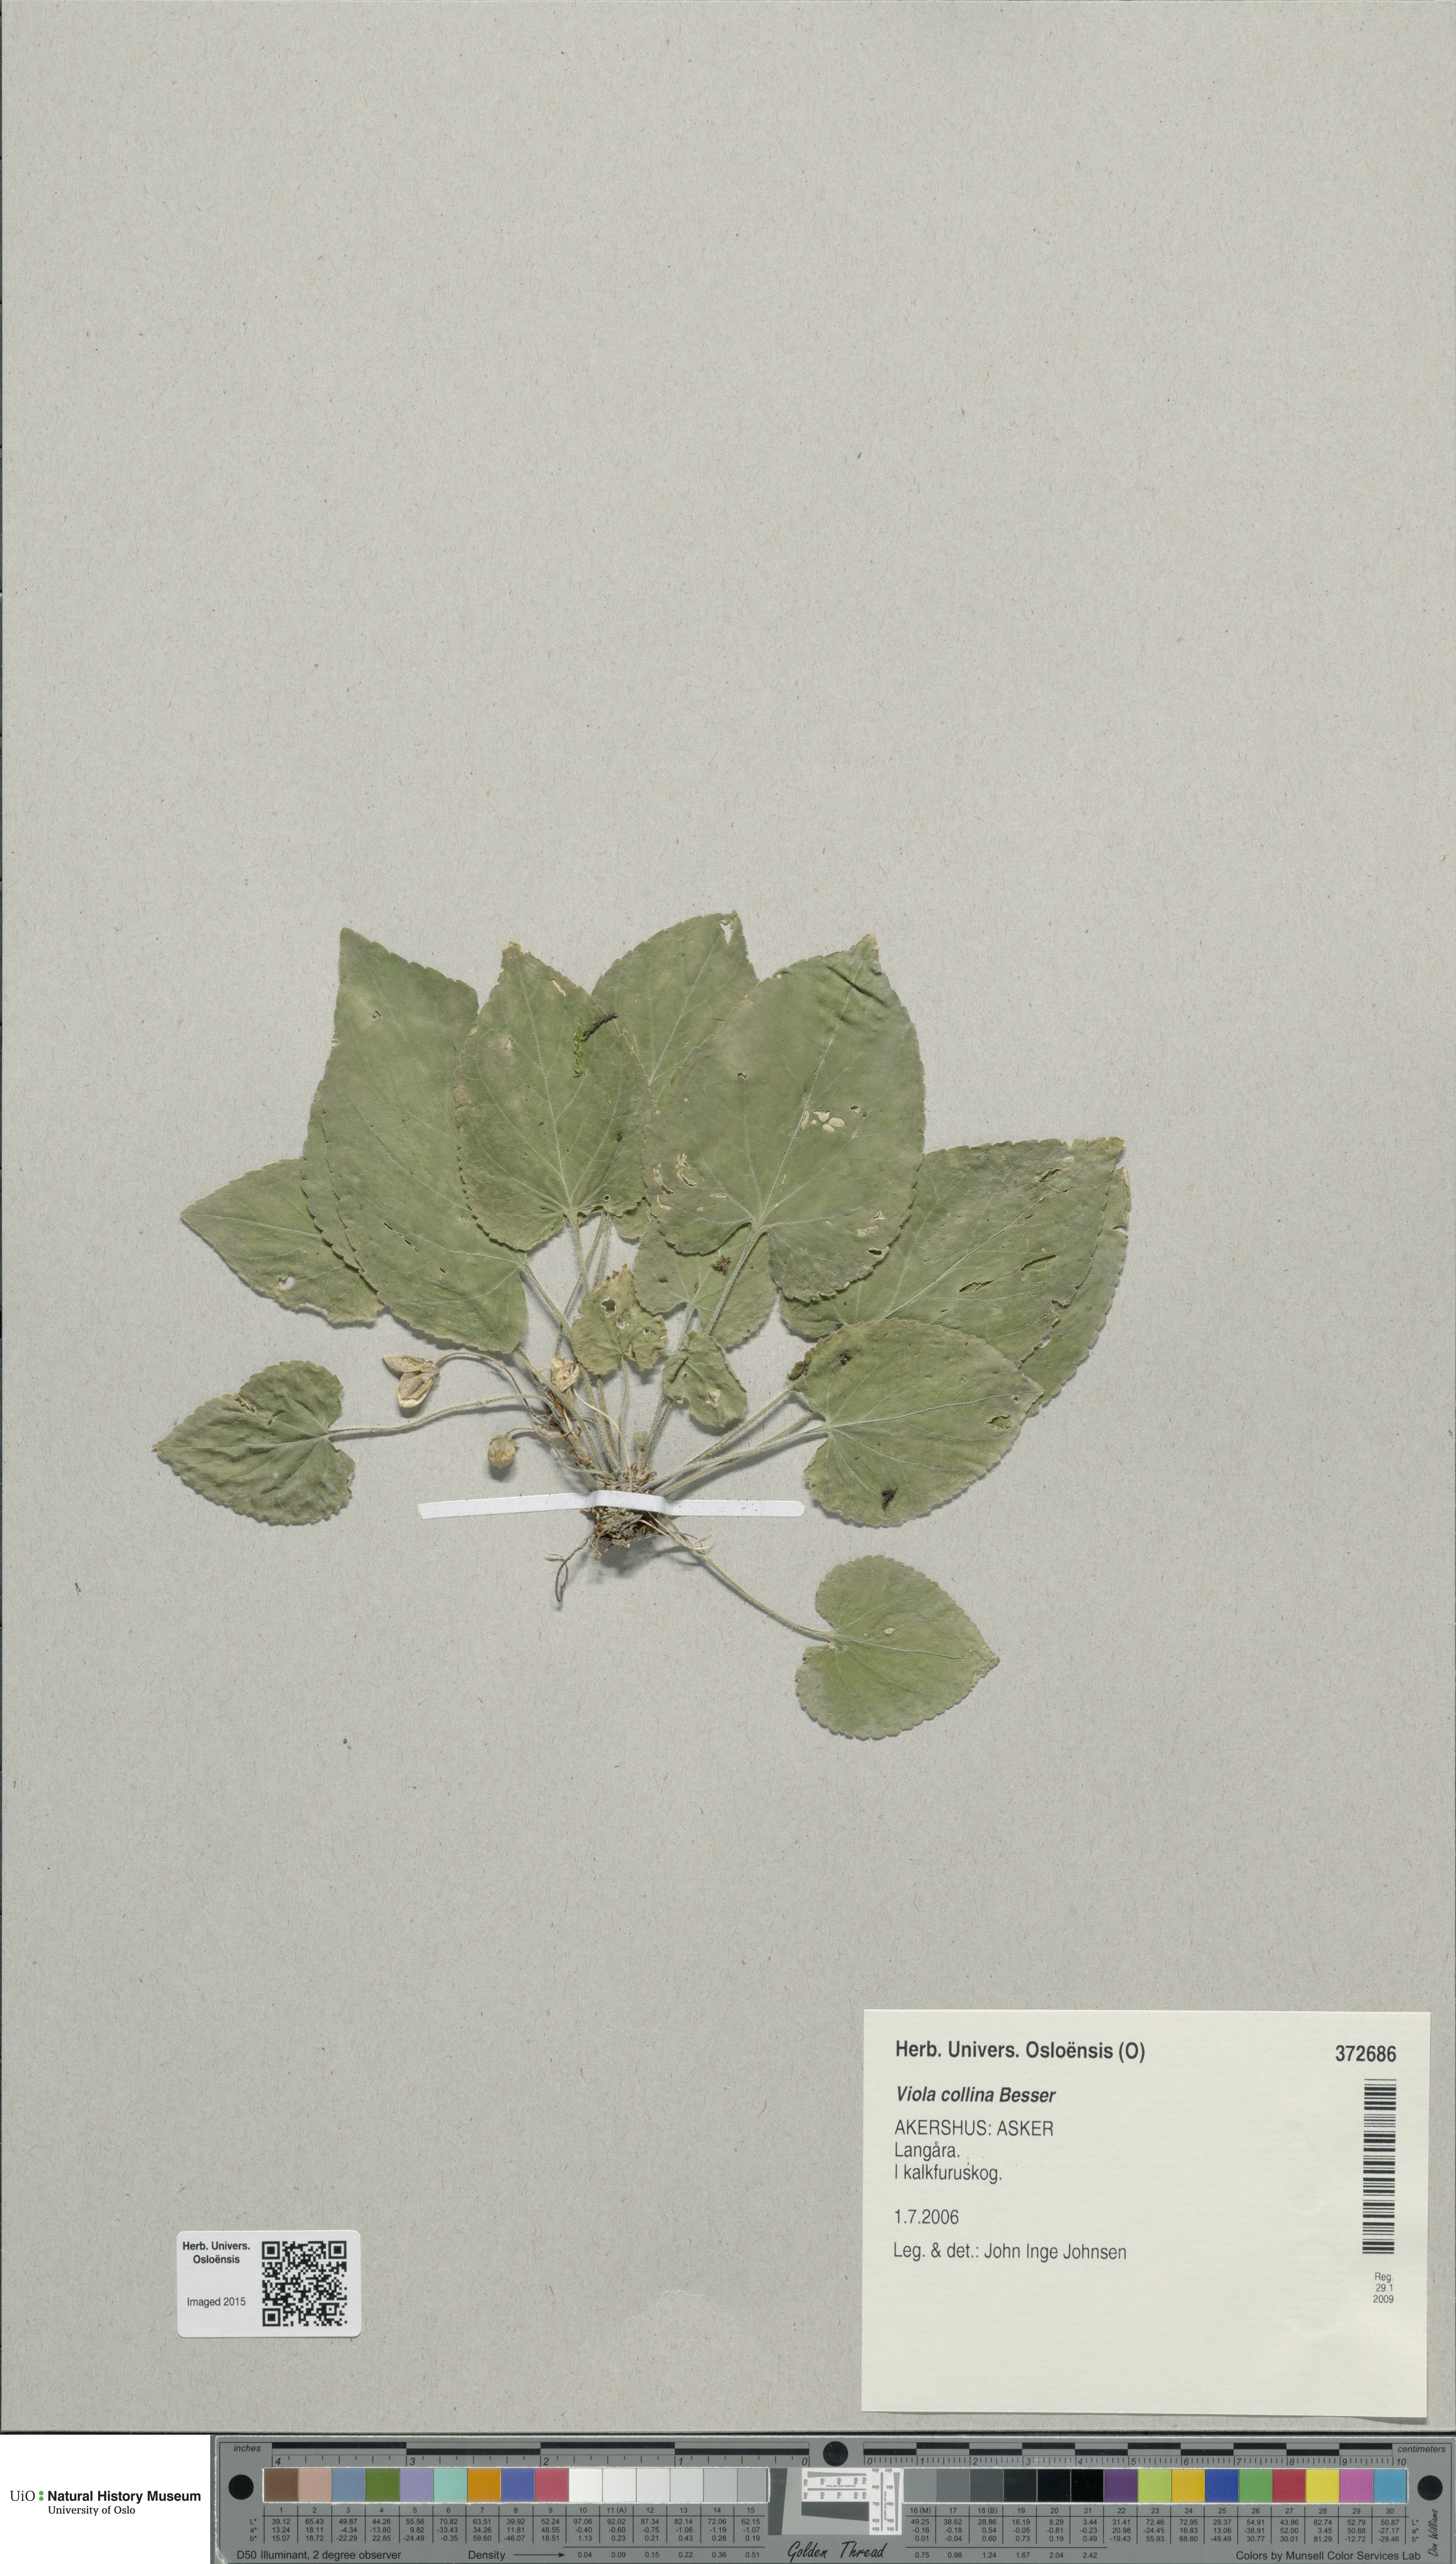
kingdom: Plantae
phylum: Tracheophyta
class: Magnoliopsida
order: Malpighiales
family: Violaceae
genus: Viola
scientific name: Viola collina
